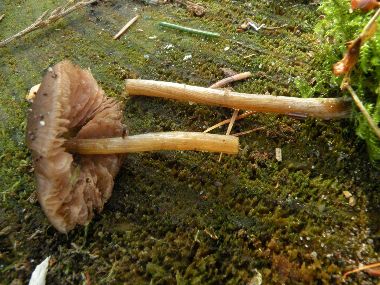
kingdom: Fungi
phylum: Basidiomycota
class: Agaricomycetes
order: Agaricales
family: Entolomataceae
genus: Entoloma
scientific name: Entoloma conferendum
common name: stjernesporet rødblad
